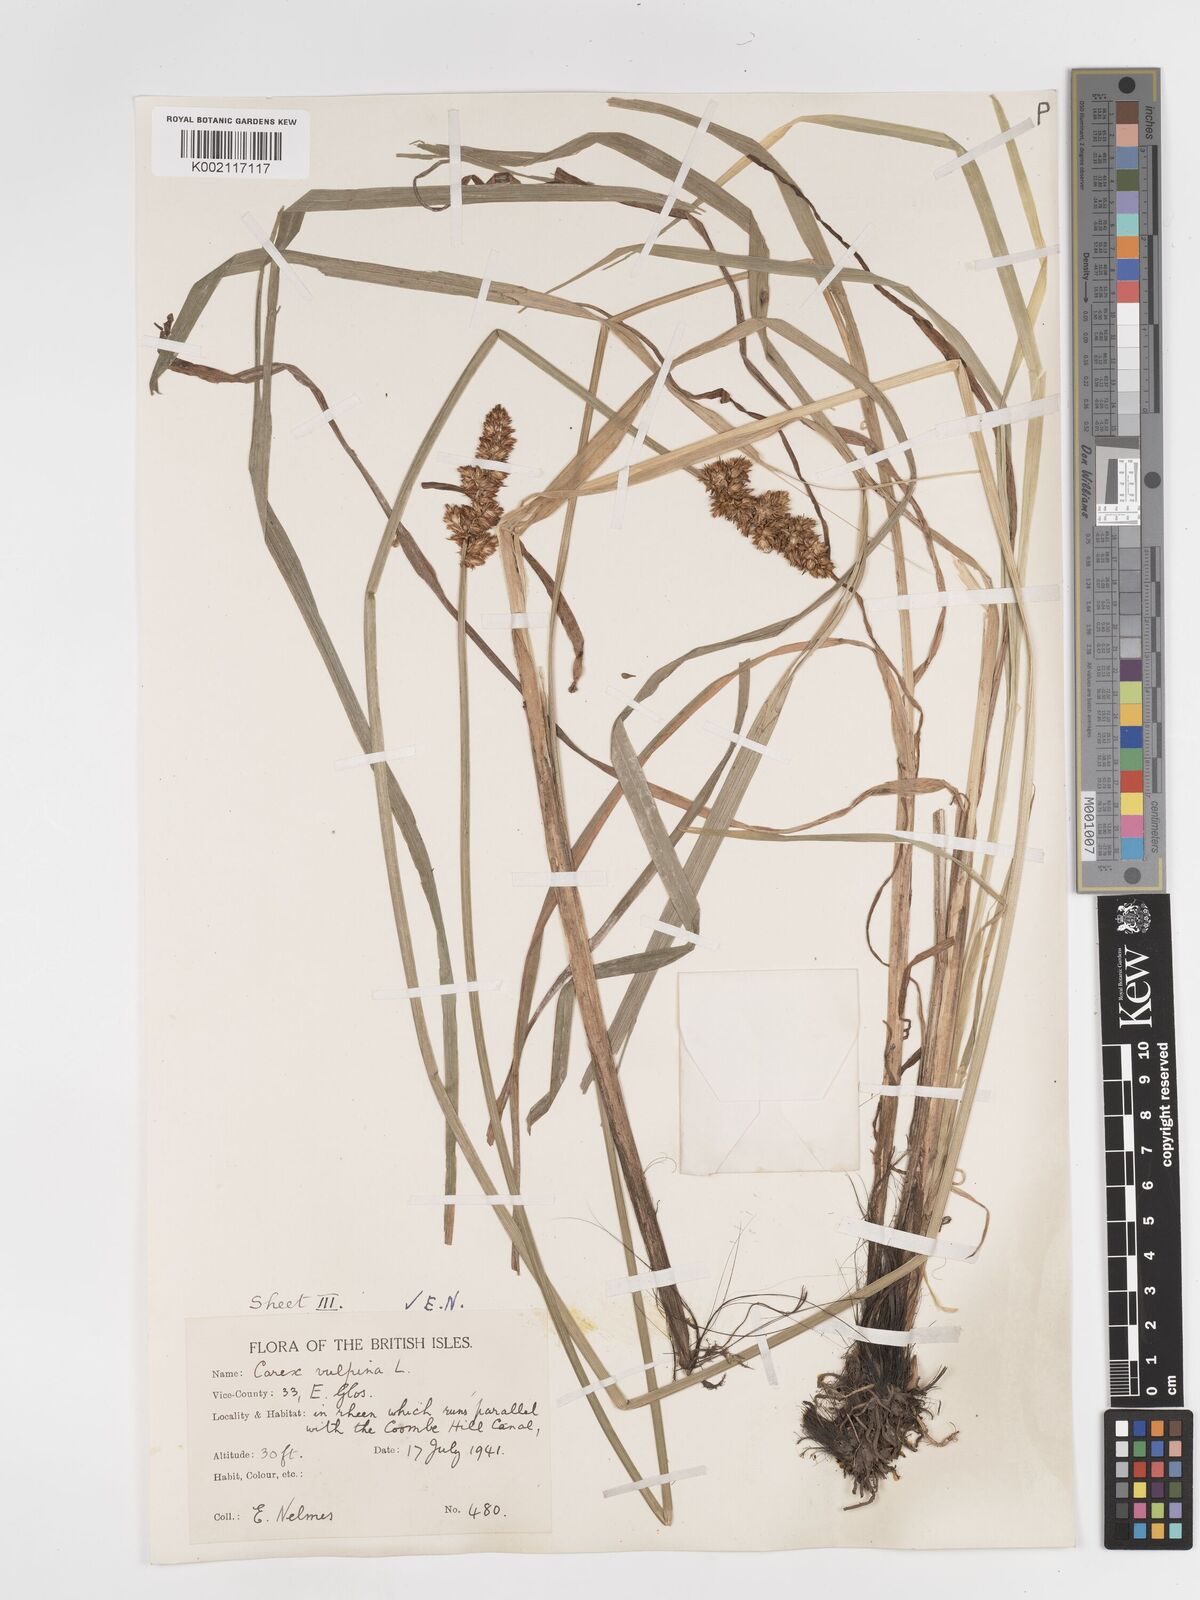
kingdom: Plantae
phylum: Tracheophyta
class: Liliopsida
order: Poales
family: Cyperaceae
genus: Carex
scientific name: Carex vulpina
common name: True fox-sedge
